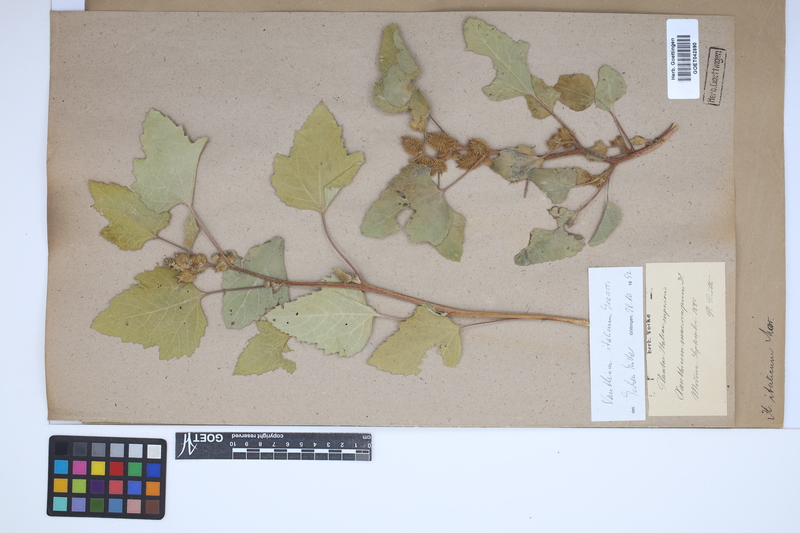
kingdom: Plantae
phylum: Tracheophyta
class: Magnoliopsida
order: Asterales
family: Asteraceae
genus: Xanthium
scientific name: Xanthium orientale
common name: Californian burr
